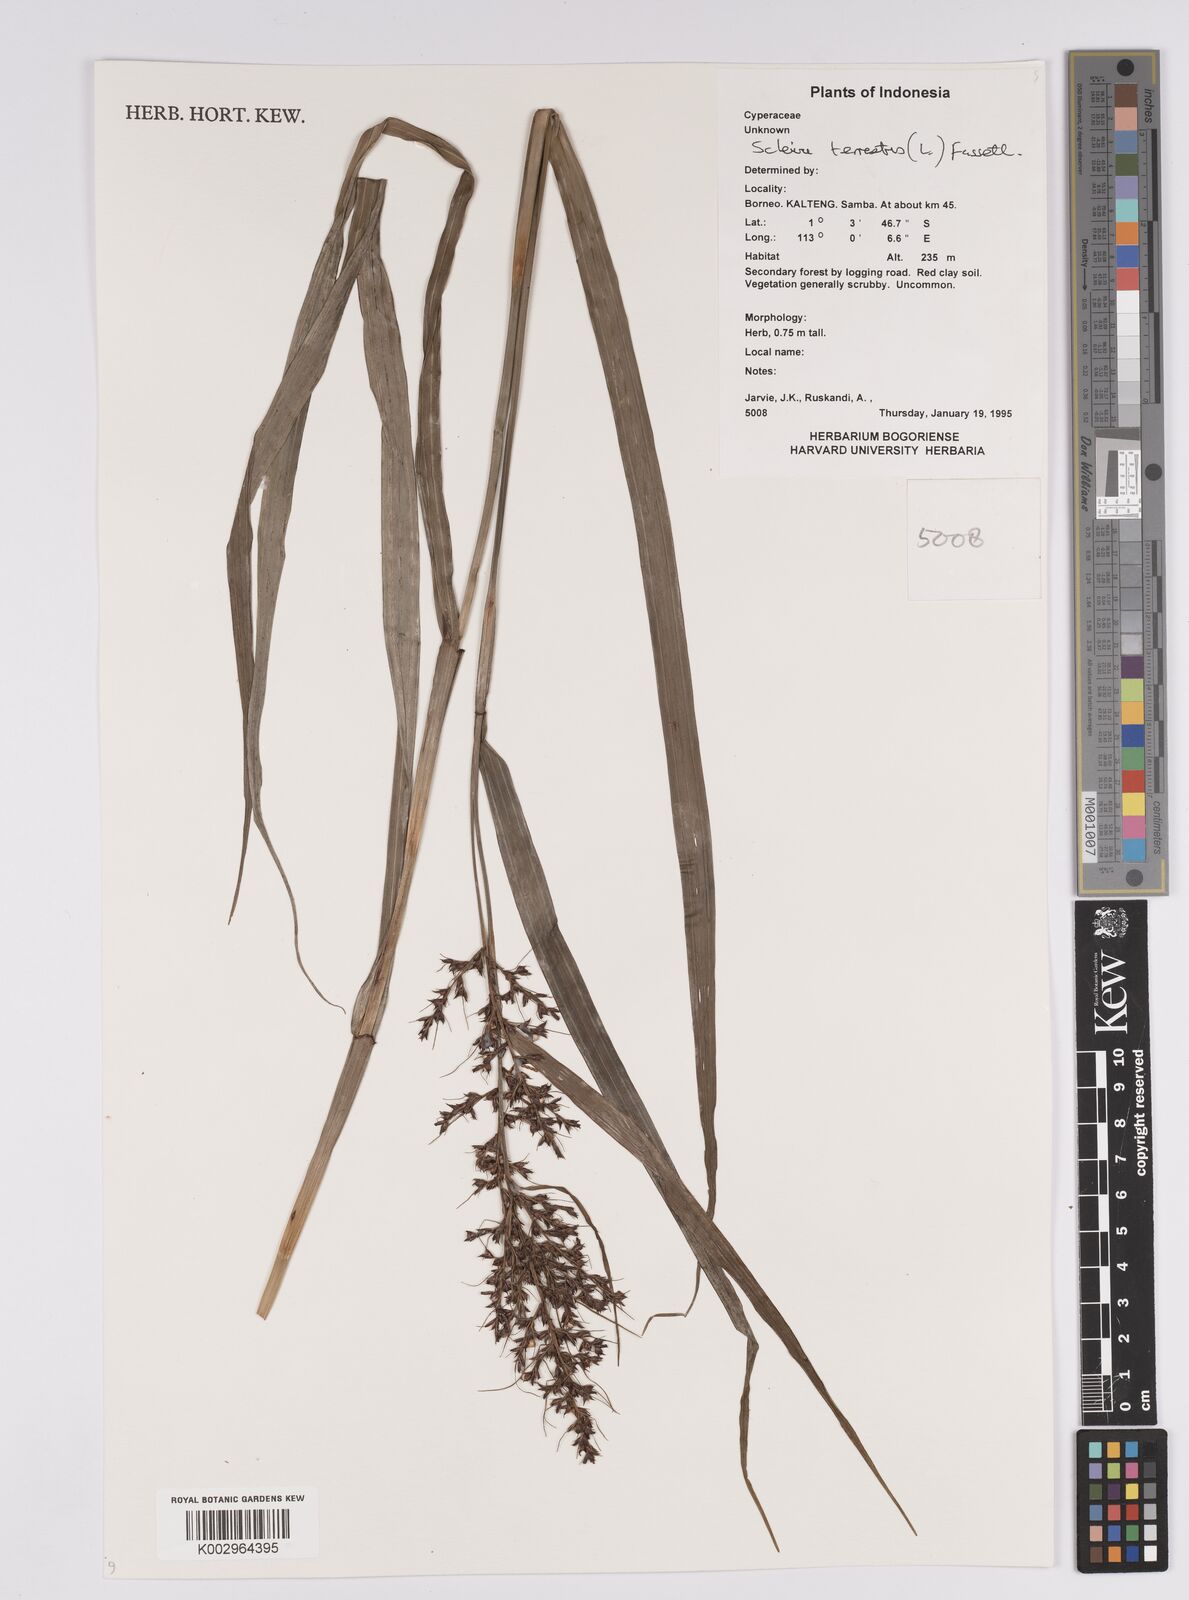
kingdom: Plantae
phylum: Tracheophyta
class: Liliopsida
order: Poales
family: Cyperaceae
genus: Scleria
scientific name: Scleria terrestris
